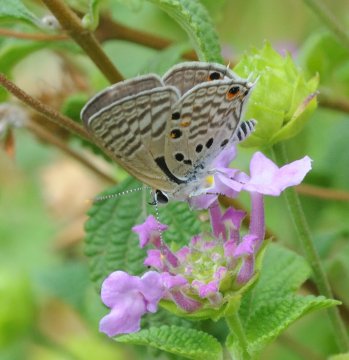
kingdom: Animalia
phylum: Arthropoda
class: Insecta
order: Lepidoptera
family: Lycaenidae
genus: Anthene
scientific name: Anthene amarah
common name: Black-striped Hairtail
